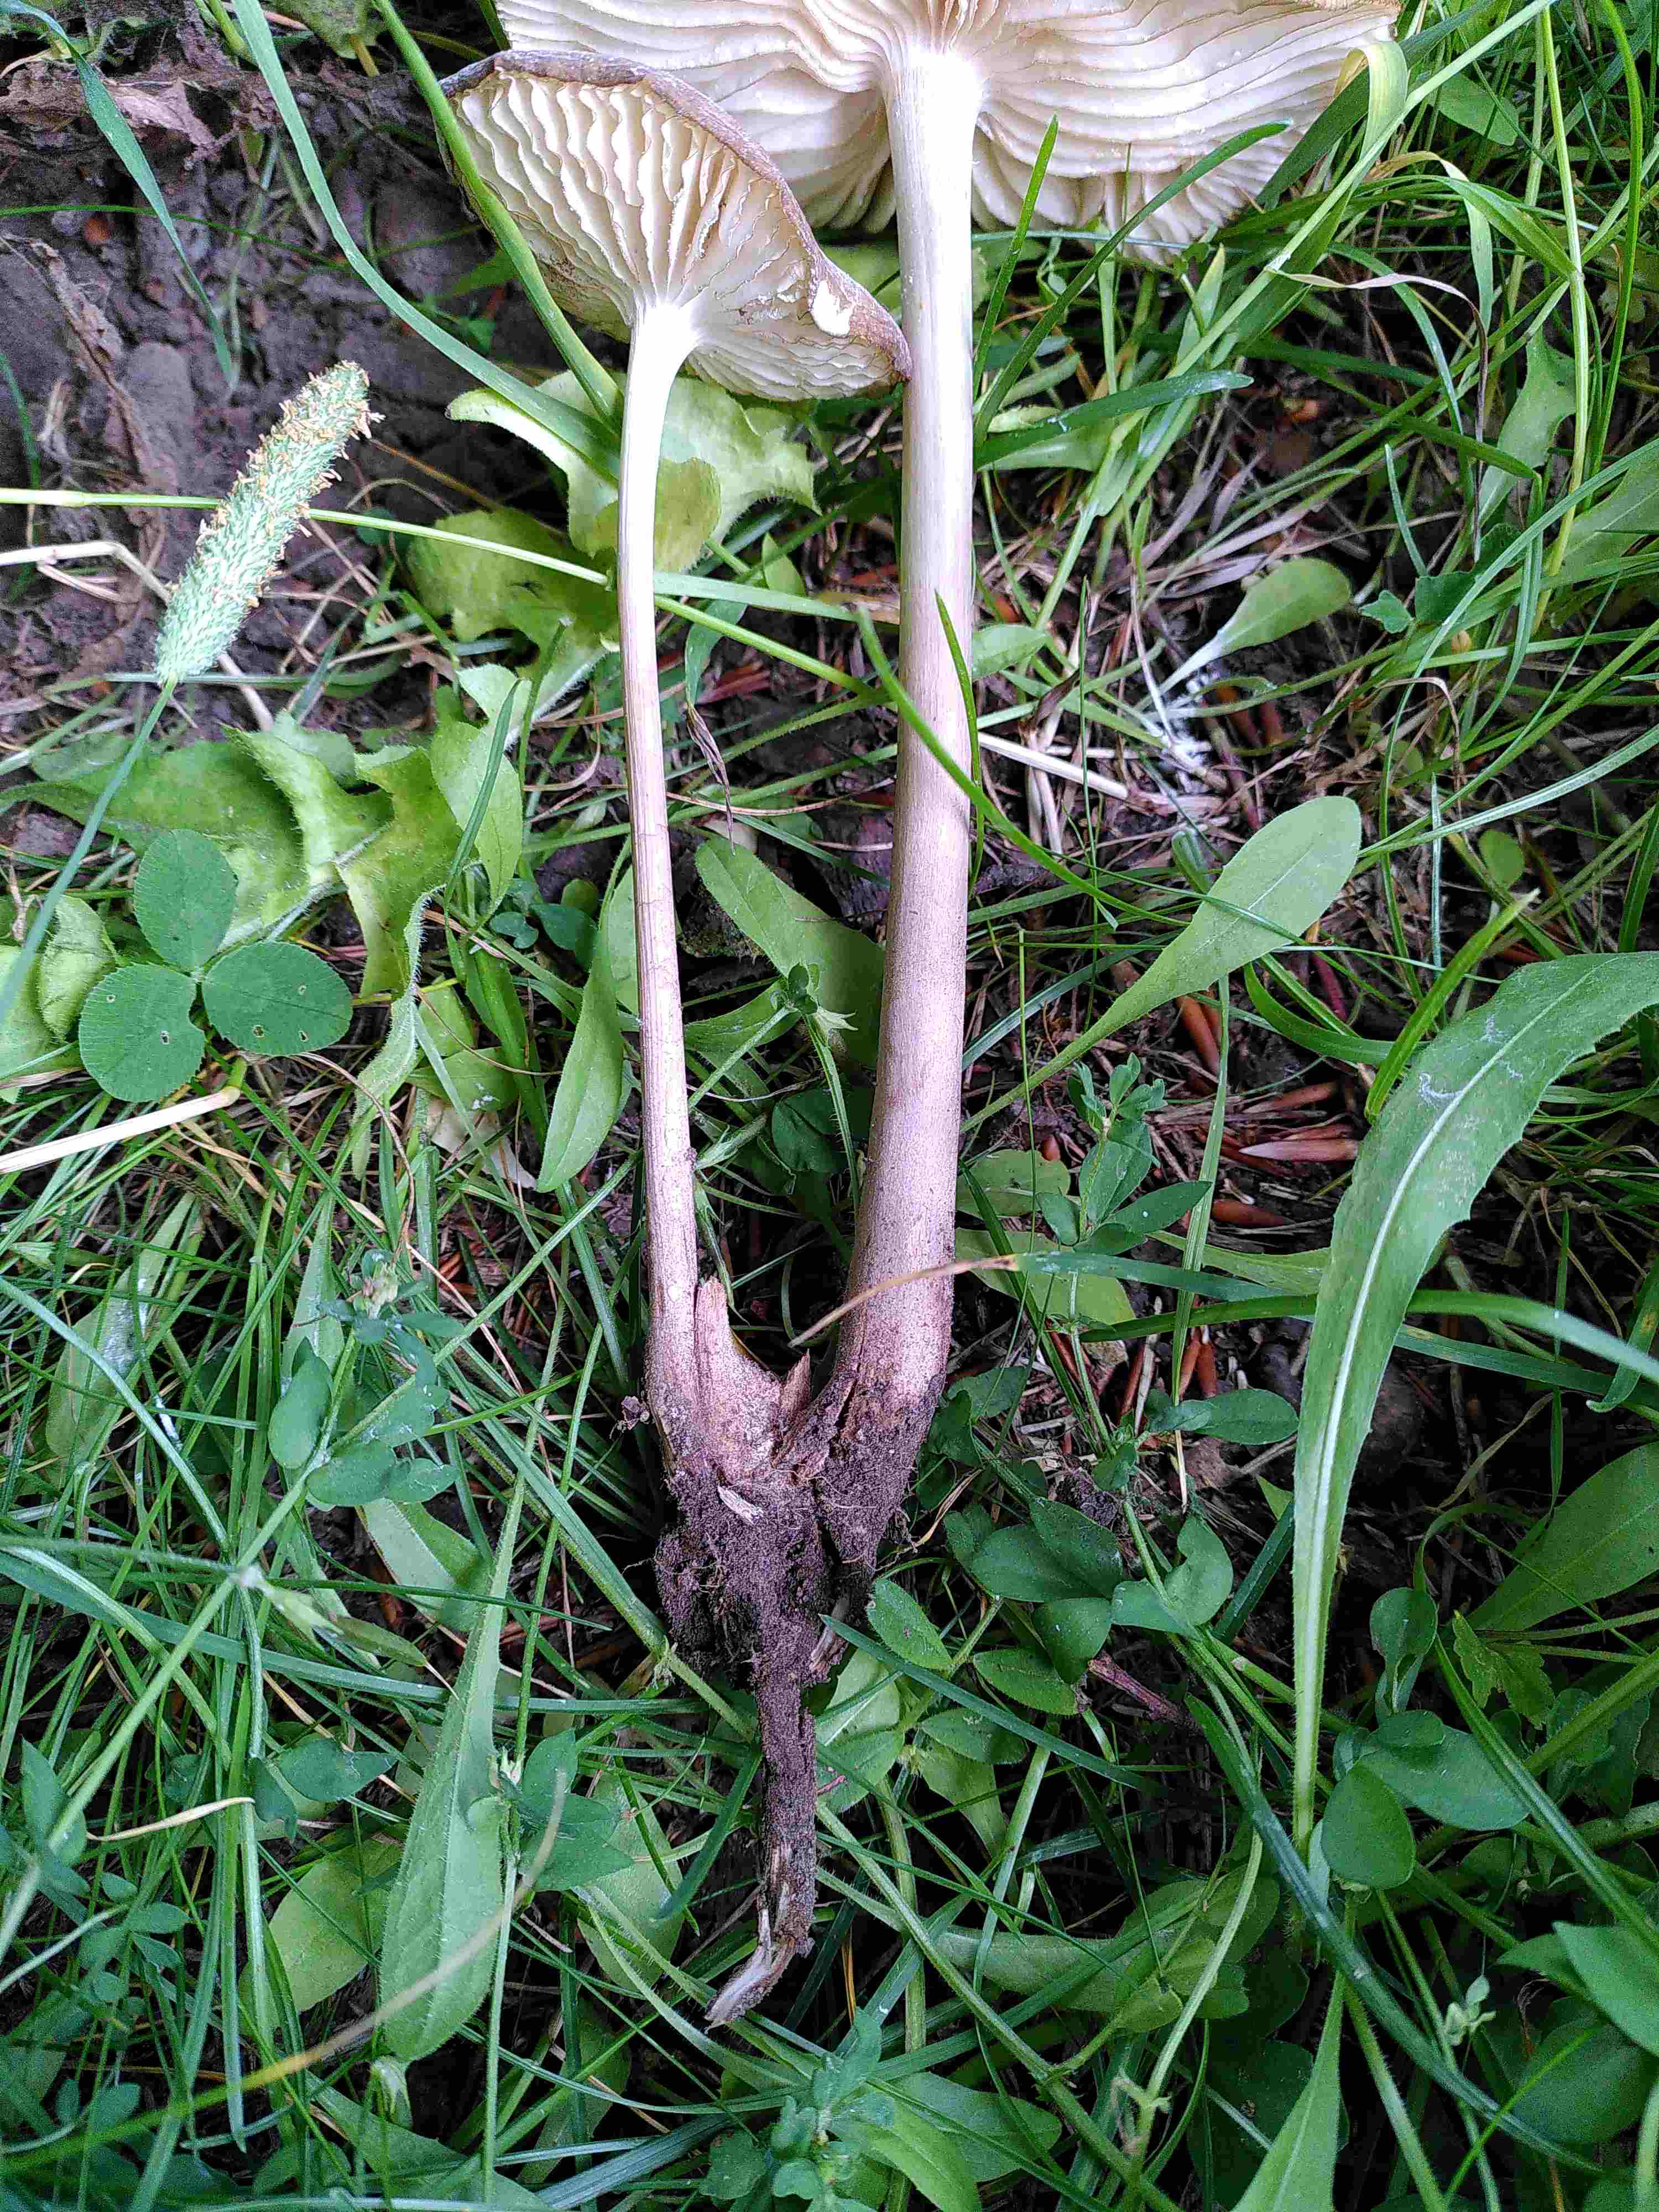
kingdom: Fungi
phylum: Basidiomycota
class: Agaricomycetes
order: Agaricales
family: Physalacriaceae
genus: Hymenopellis
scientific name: Hymenopellis radicata
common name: almindelig pælerodshat
